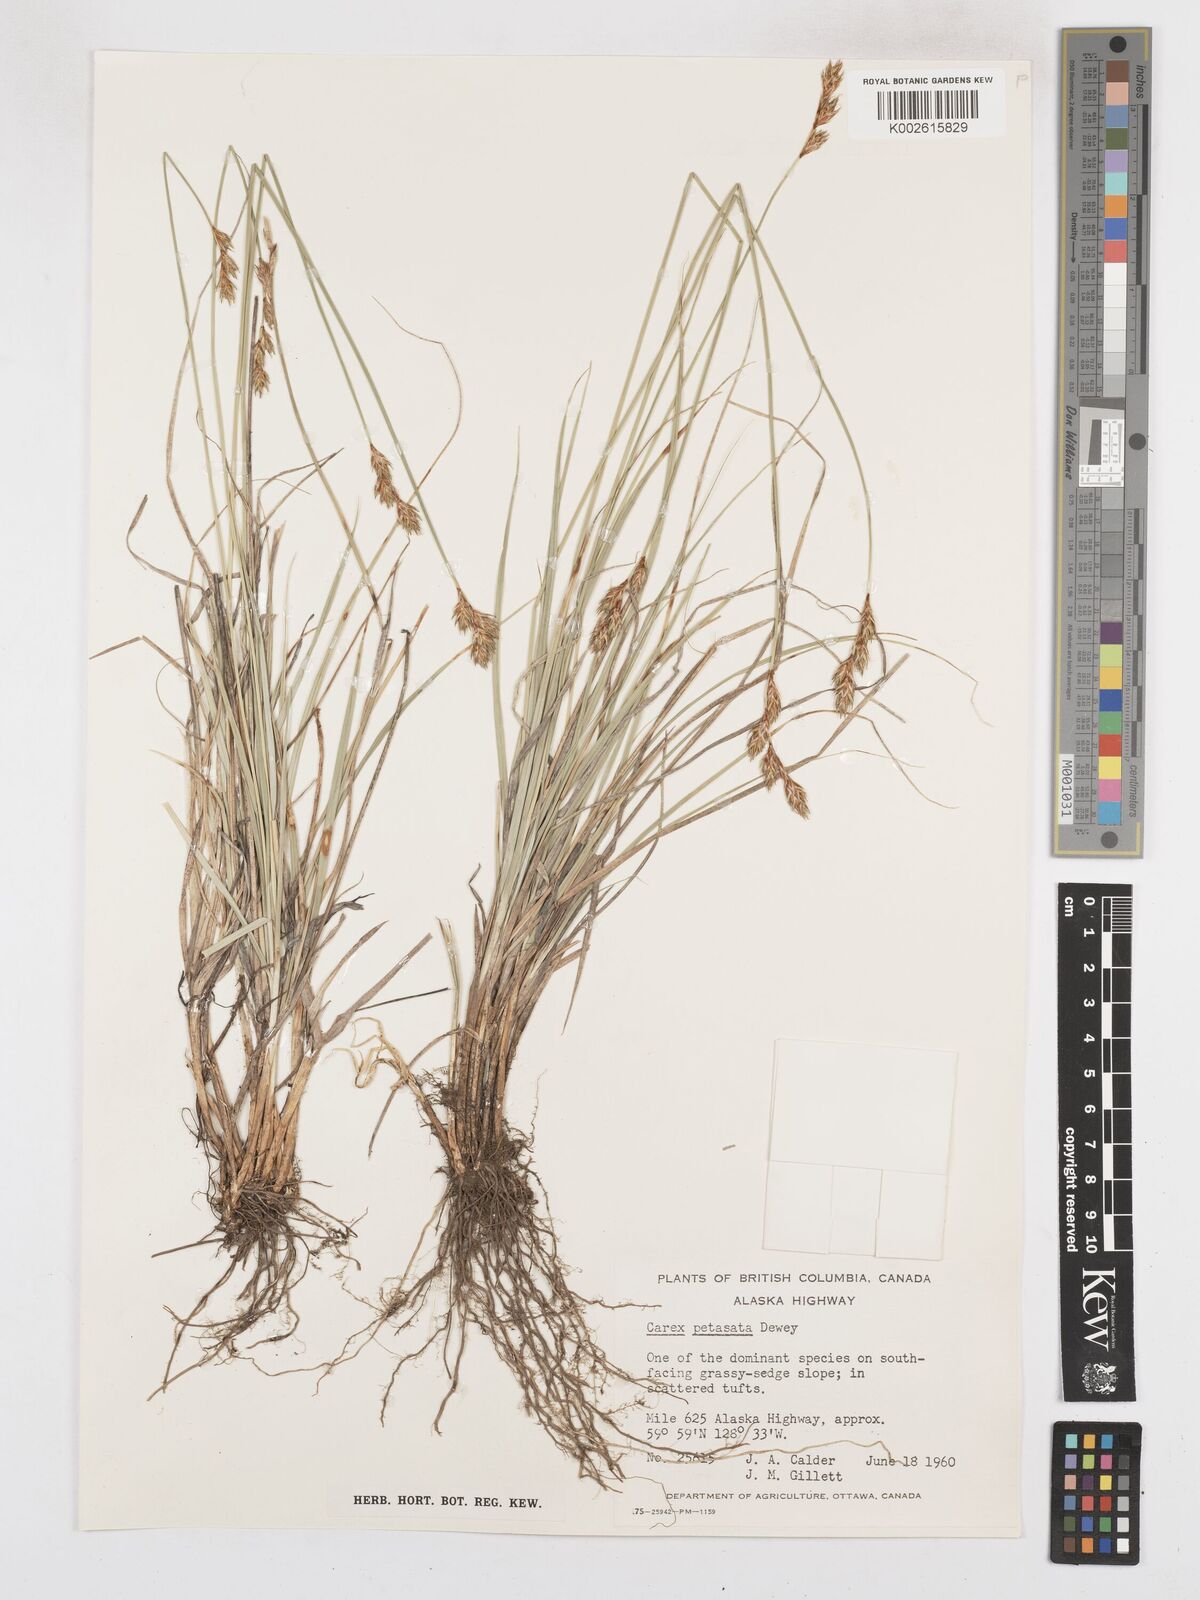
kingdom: Plantae
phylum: Tracheophyta
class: Liliopsida
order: Poales
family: Cyperaceae
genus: Carex
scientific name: Carex petasata
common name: Liddon's sedge
